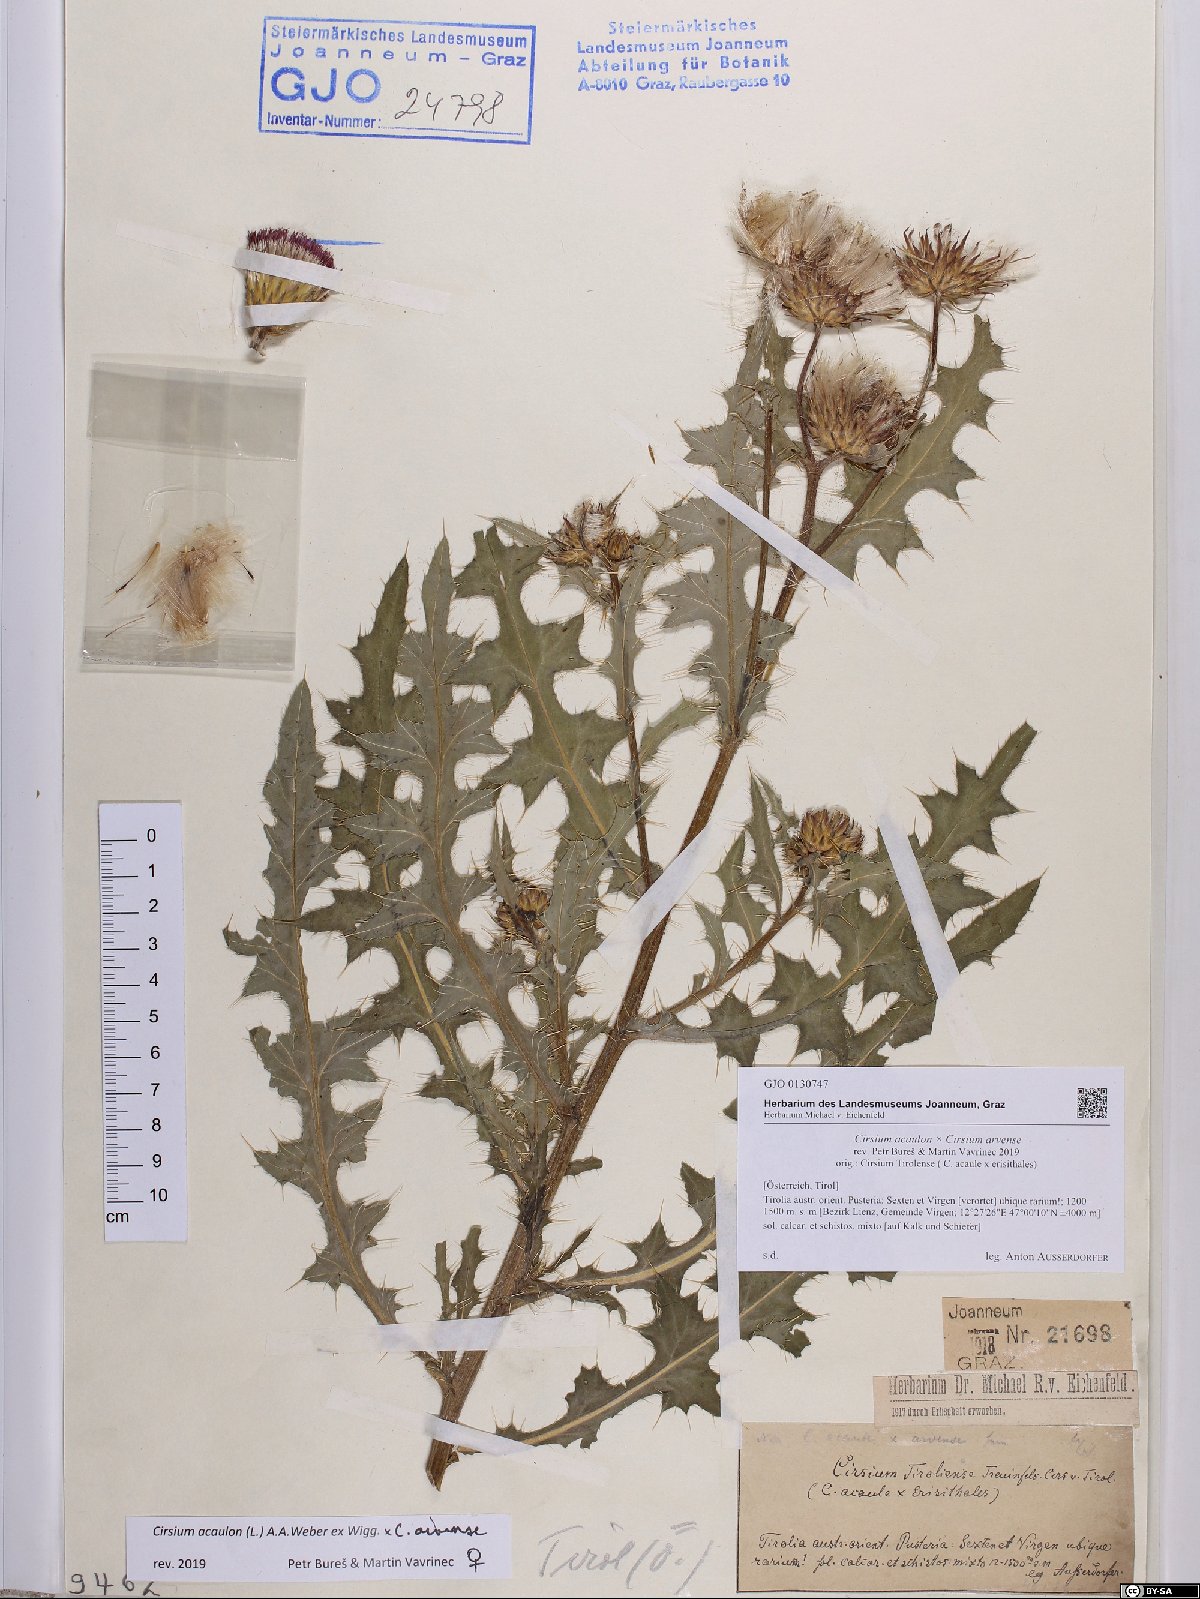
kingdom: Plantae
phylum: Tracheophyta
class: Magnoliopsida
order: Asterales
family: Asteraceae
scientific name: Asteraceae
